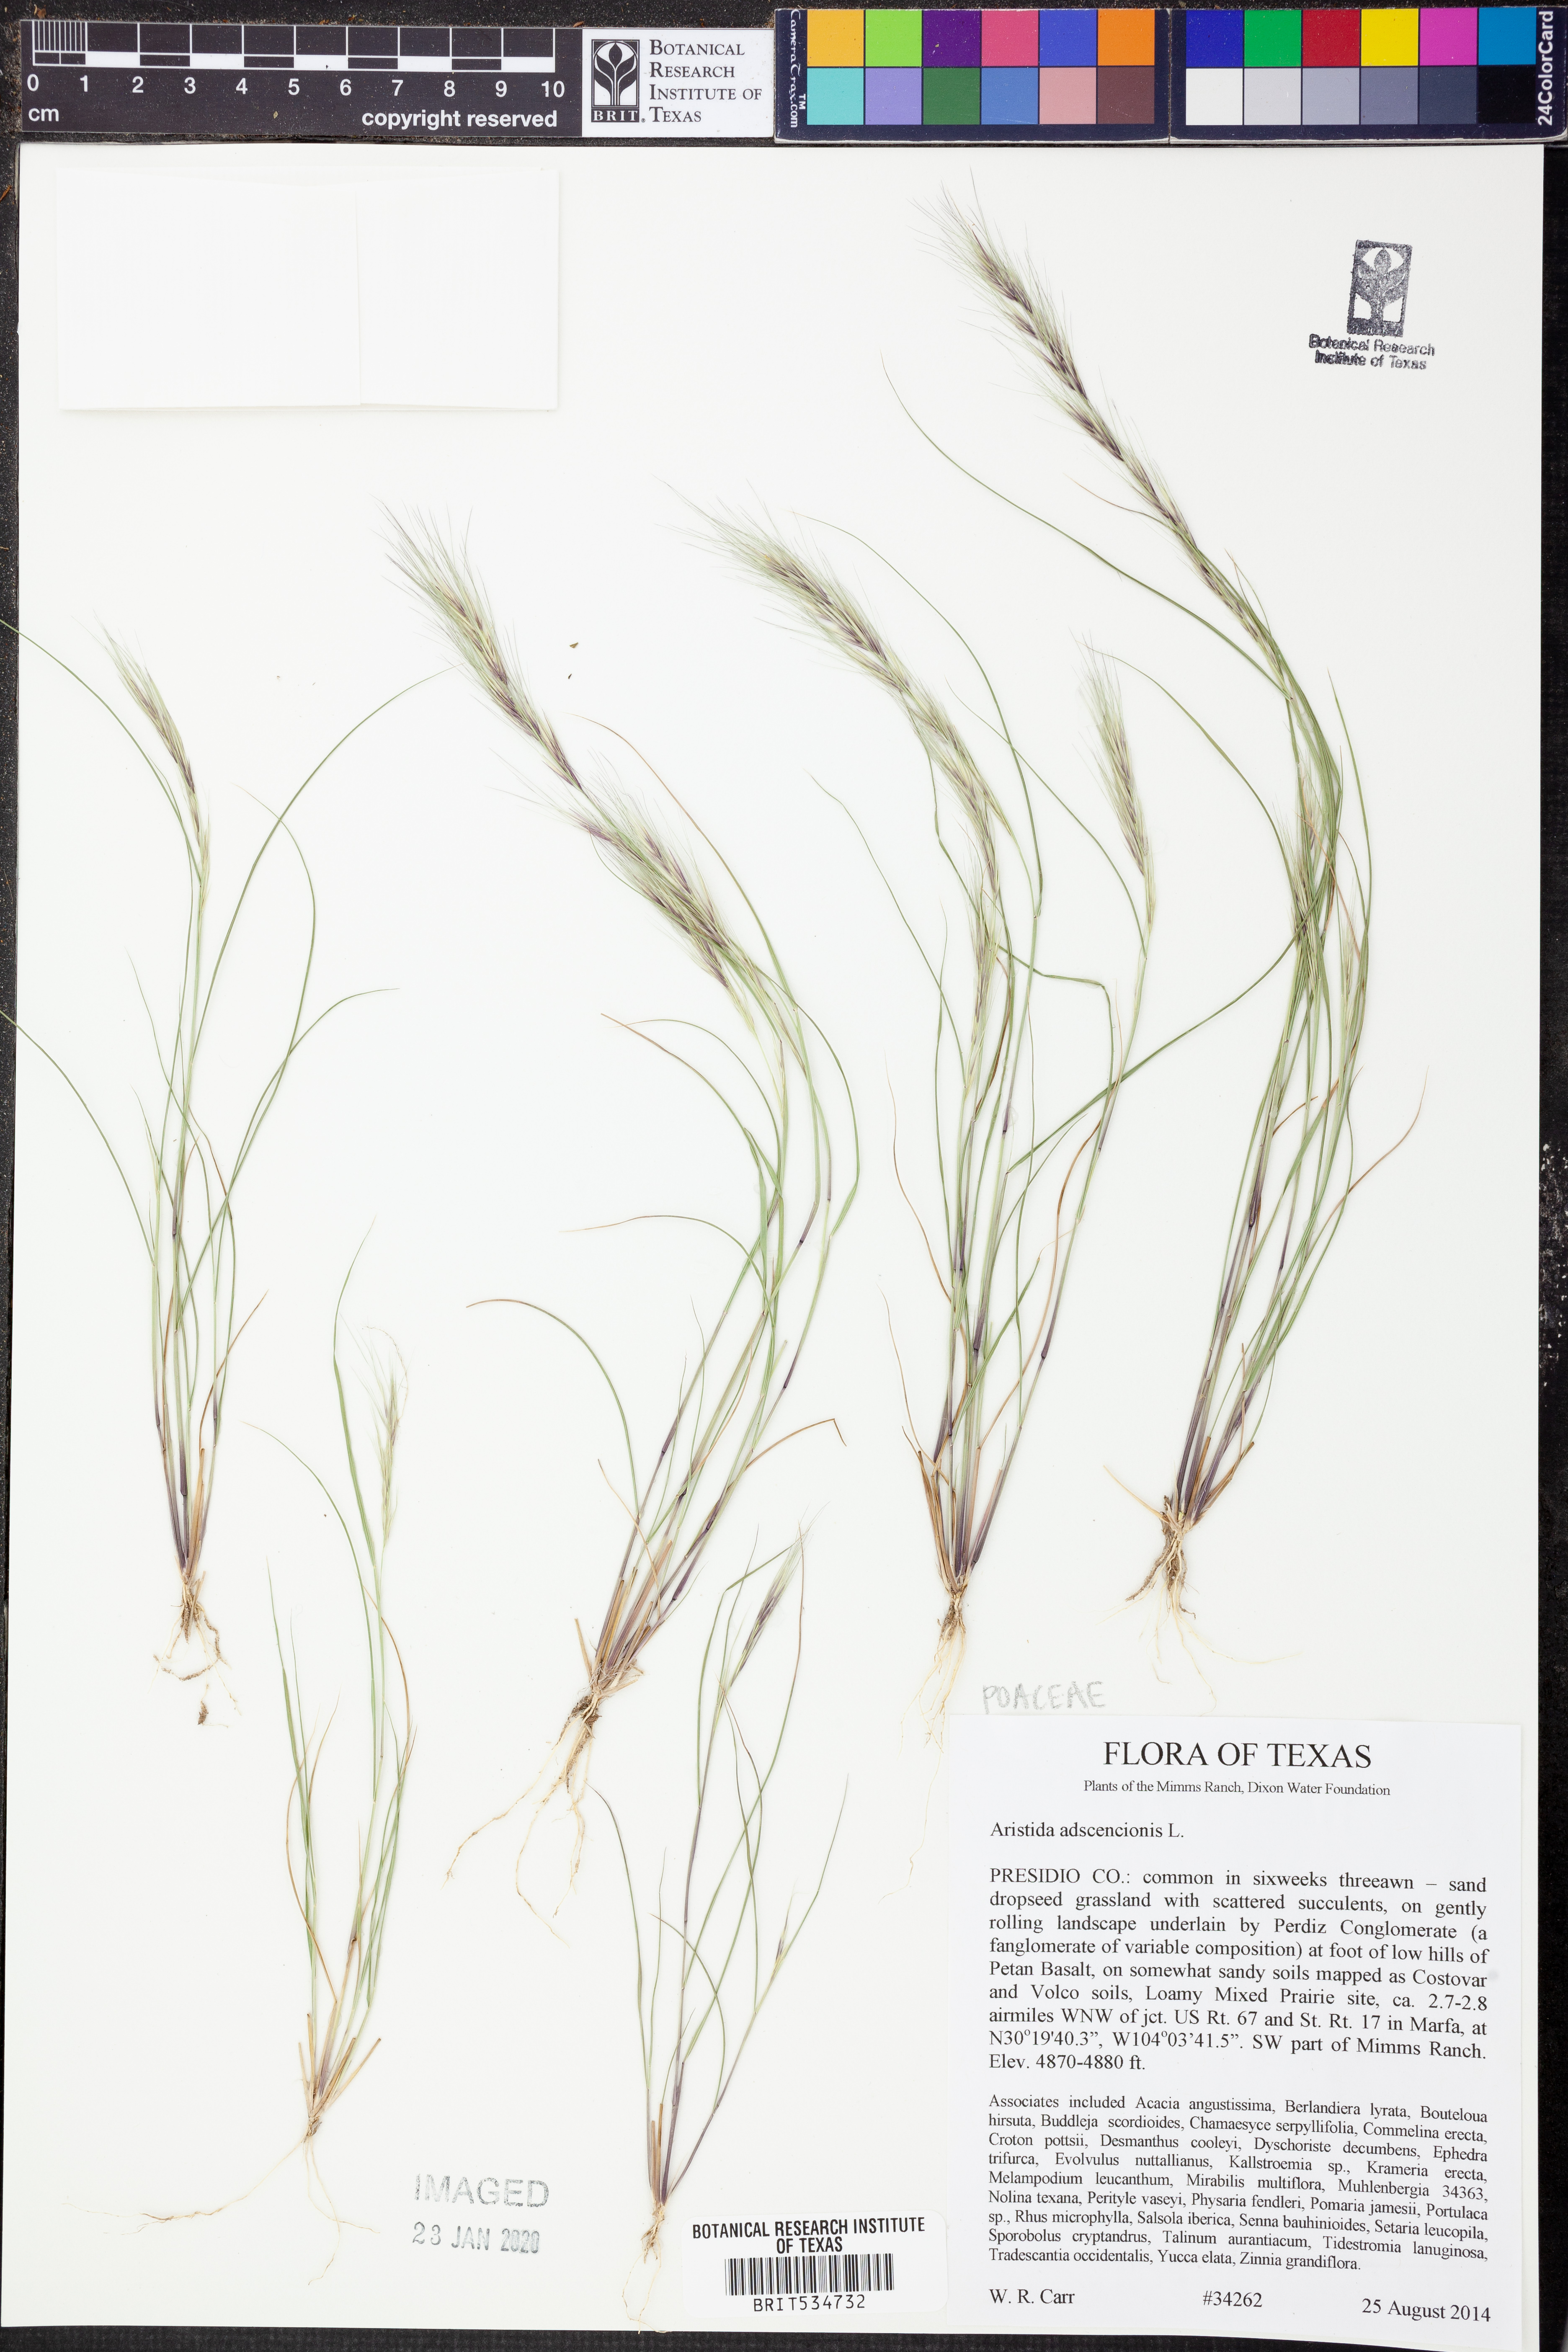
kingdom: Plantae
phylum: Tracheophyta
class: Liliopsida
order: Poales
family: Poaceae
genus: Aristida
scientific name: Aristida adscensionis
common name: Sixweeks threeawn
